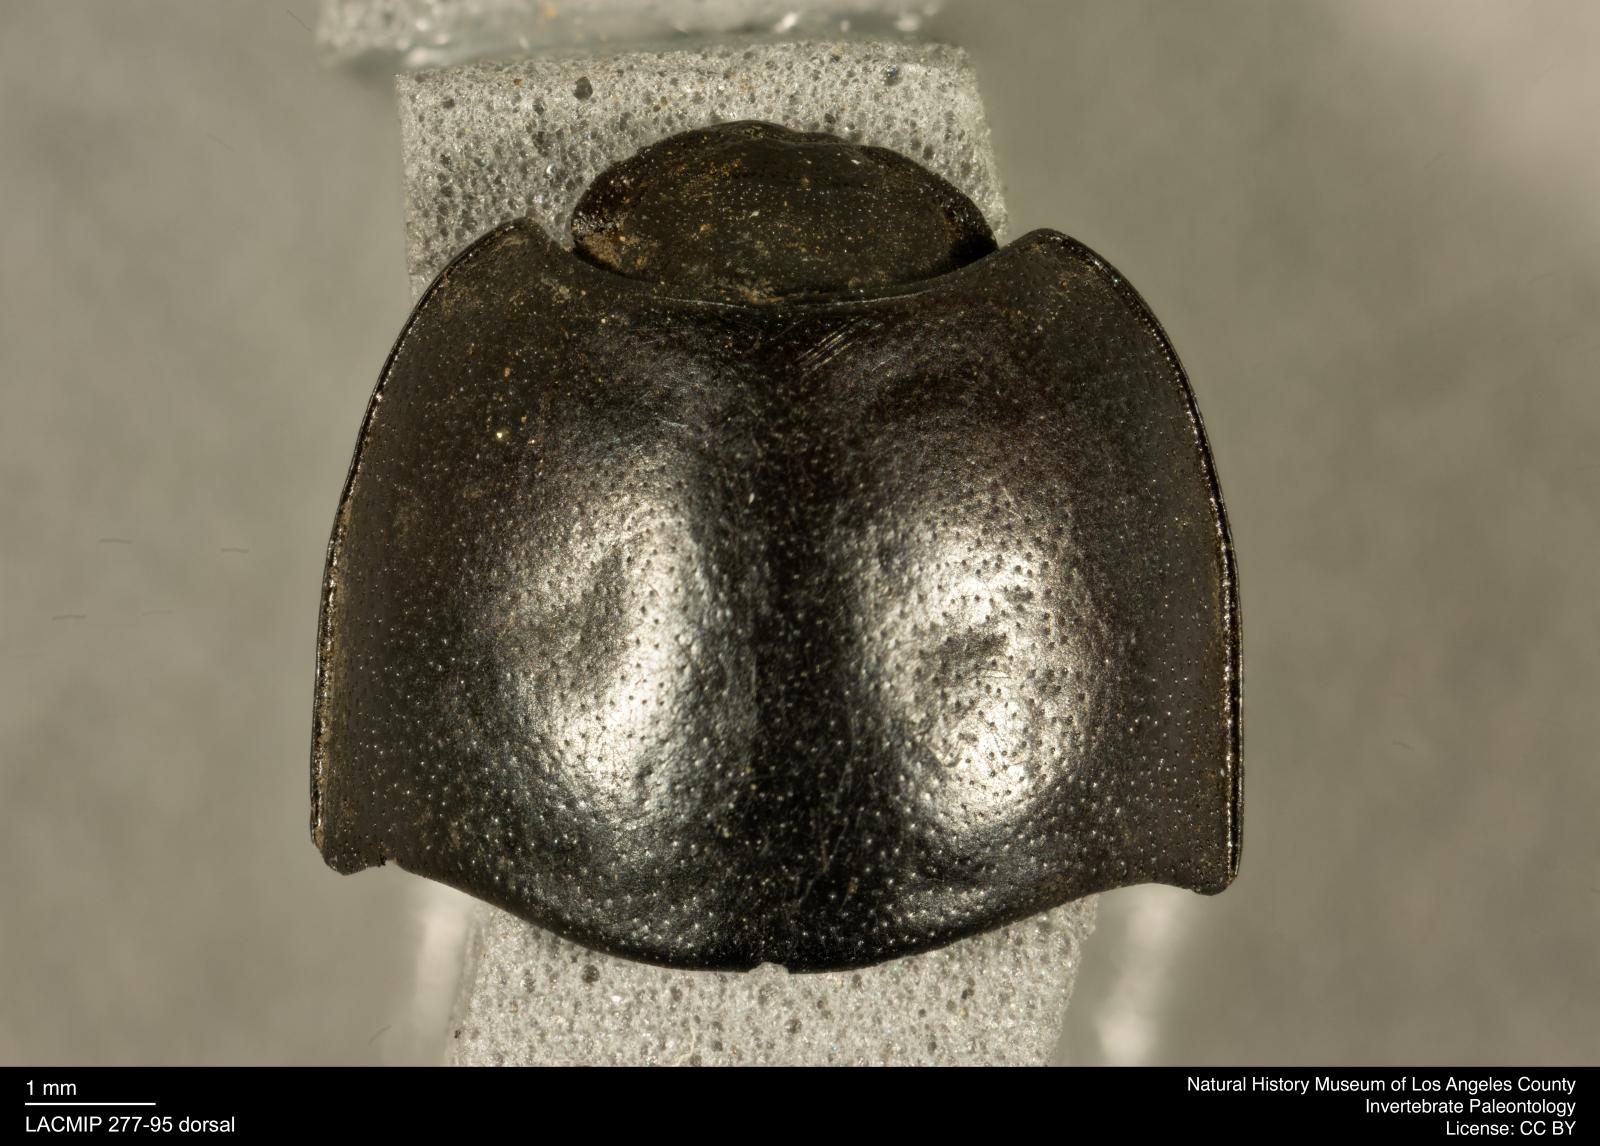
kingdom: Animalia
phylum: Arthropoda
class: Insecta
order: Coleoptera
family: Tenebrionidae
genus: Coniontis
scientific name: Coniontis abdominalis
